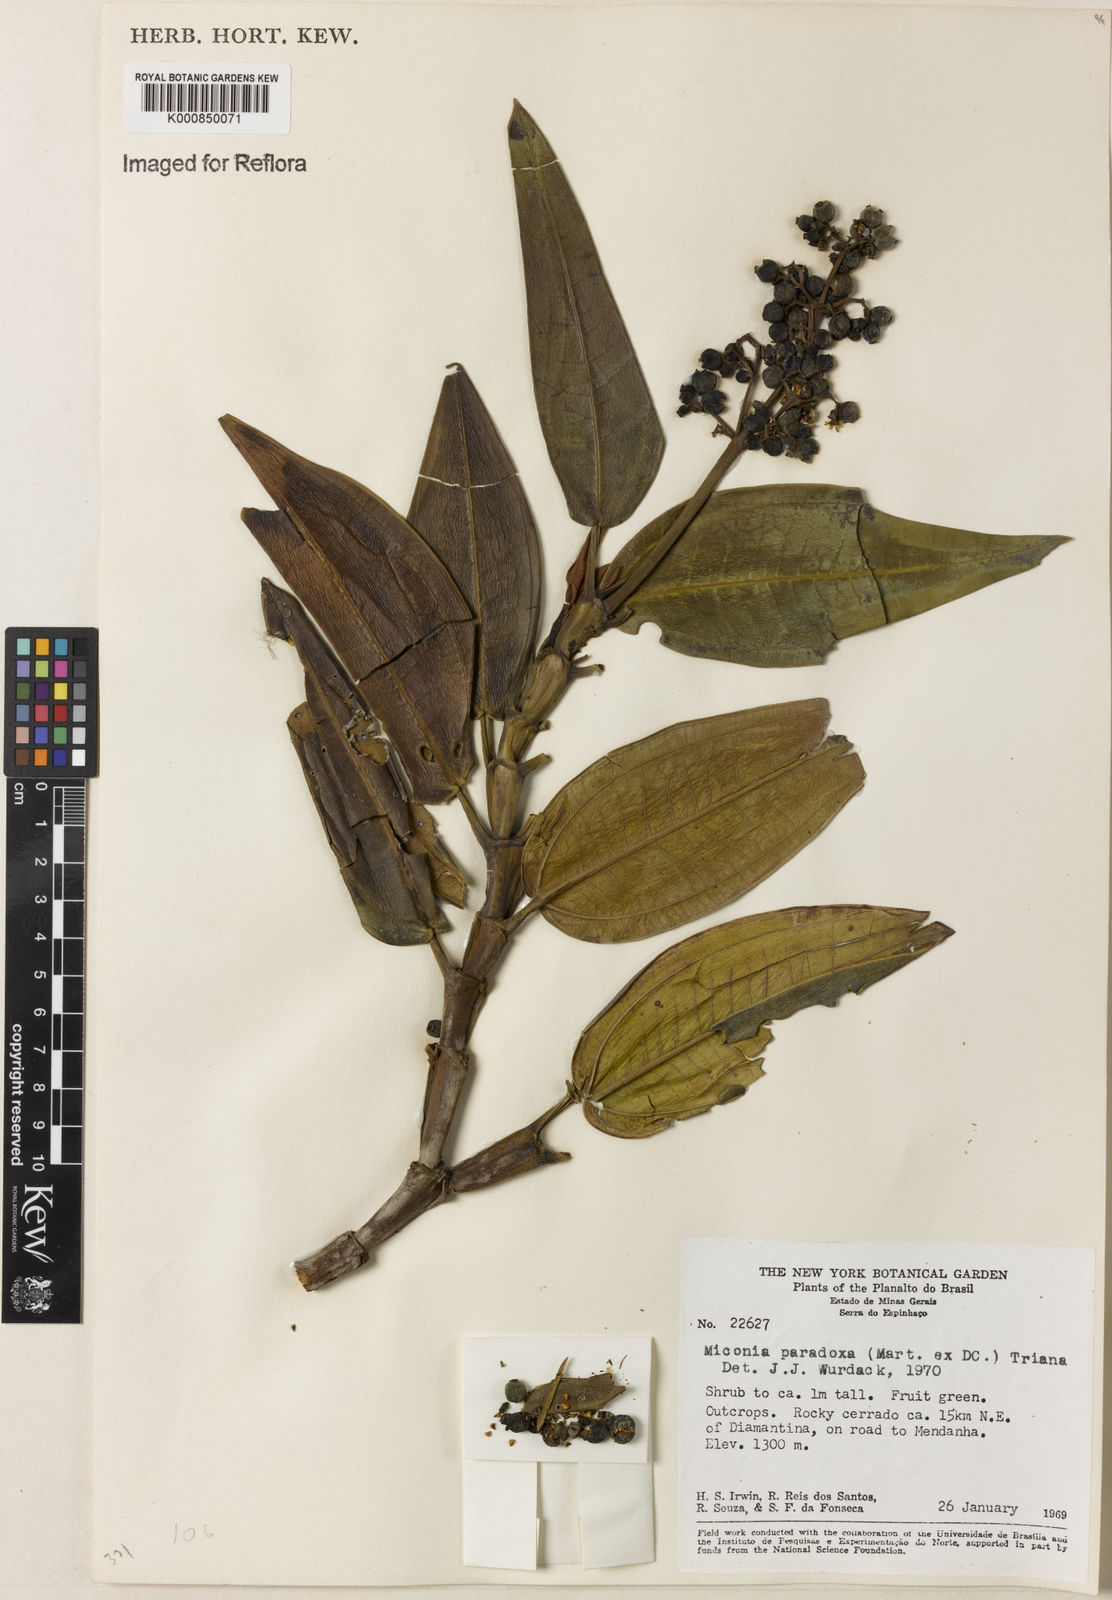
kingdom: Plantae
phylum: Tracheophyta
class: Magnoliopsida
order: Myrtales
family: Melastomataceae
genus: Miconia
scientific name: Miconia paradoxa
